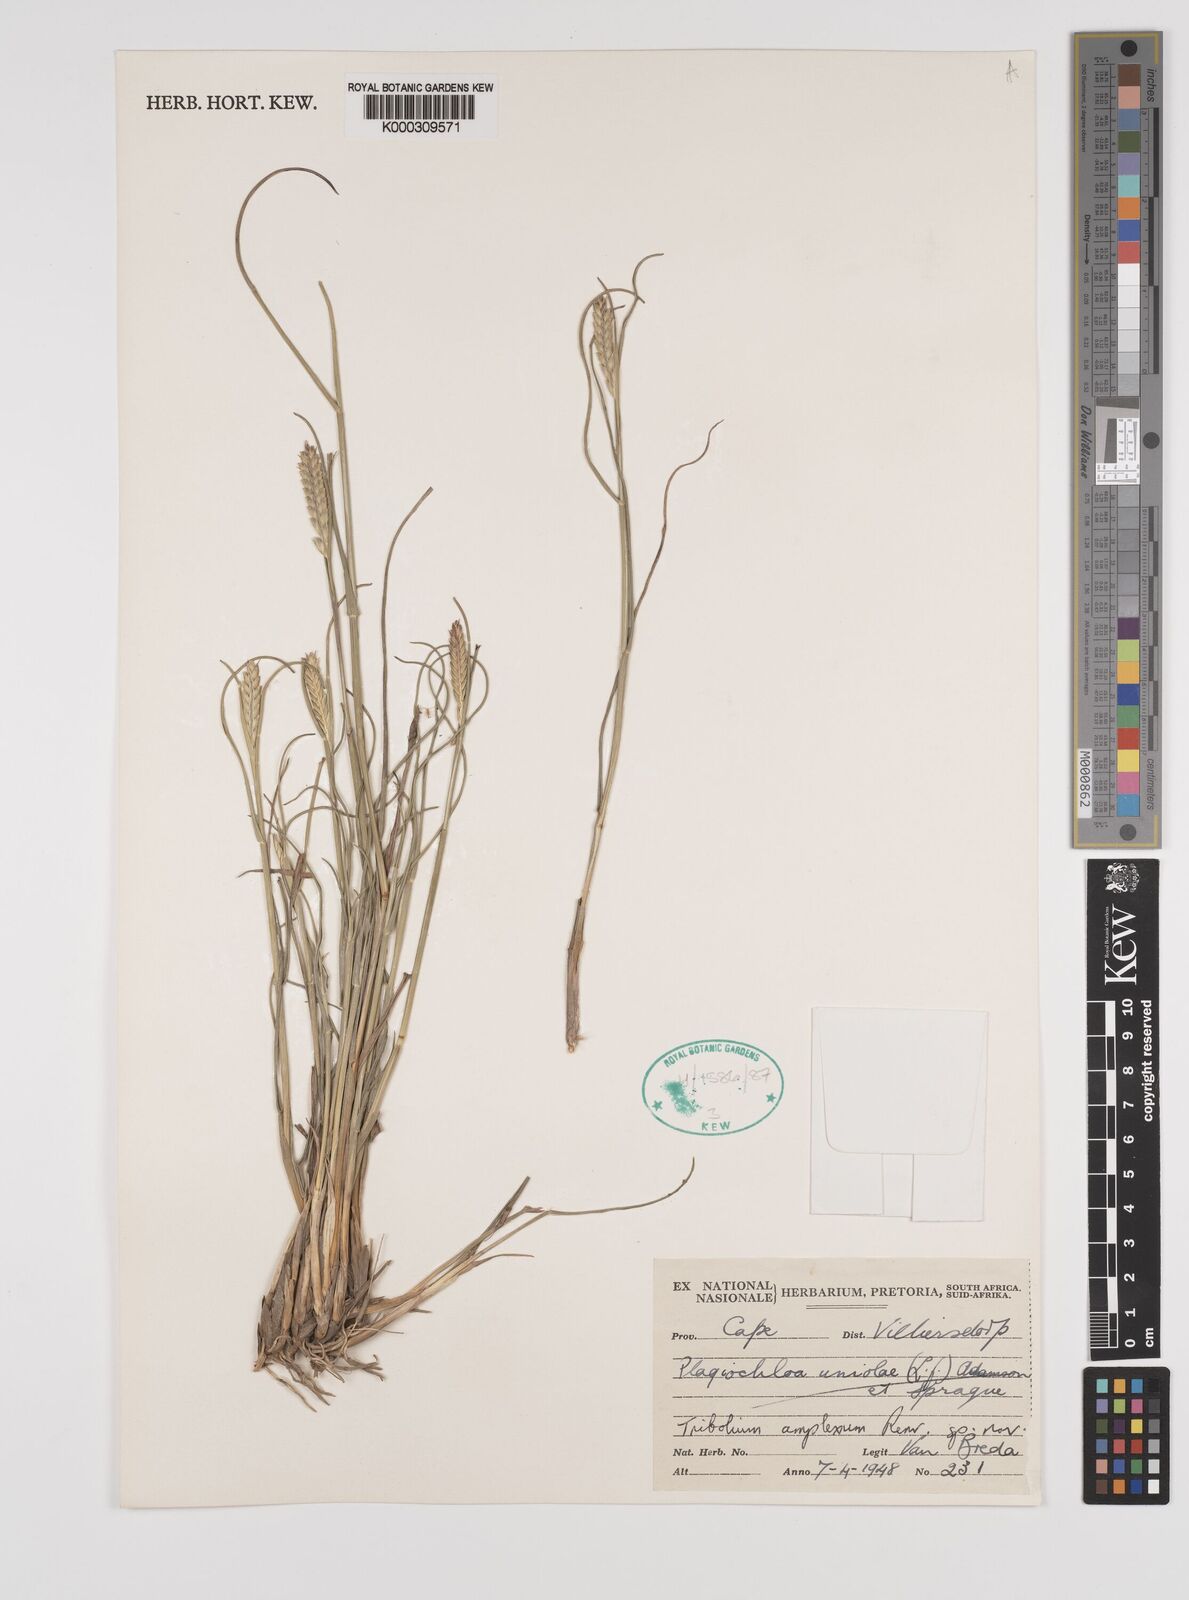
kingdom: Plantae
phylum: Tracheophyta
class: Liliopsida
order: Poales
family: Poaceae
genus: Tribolium
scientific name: Tribolium amplexum
